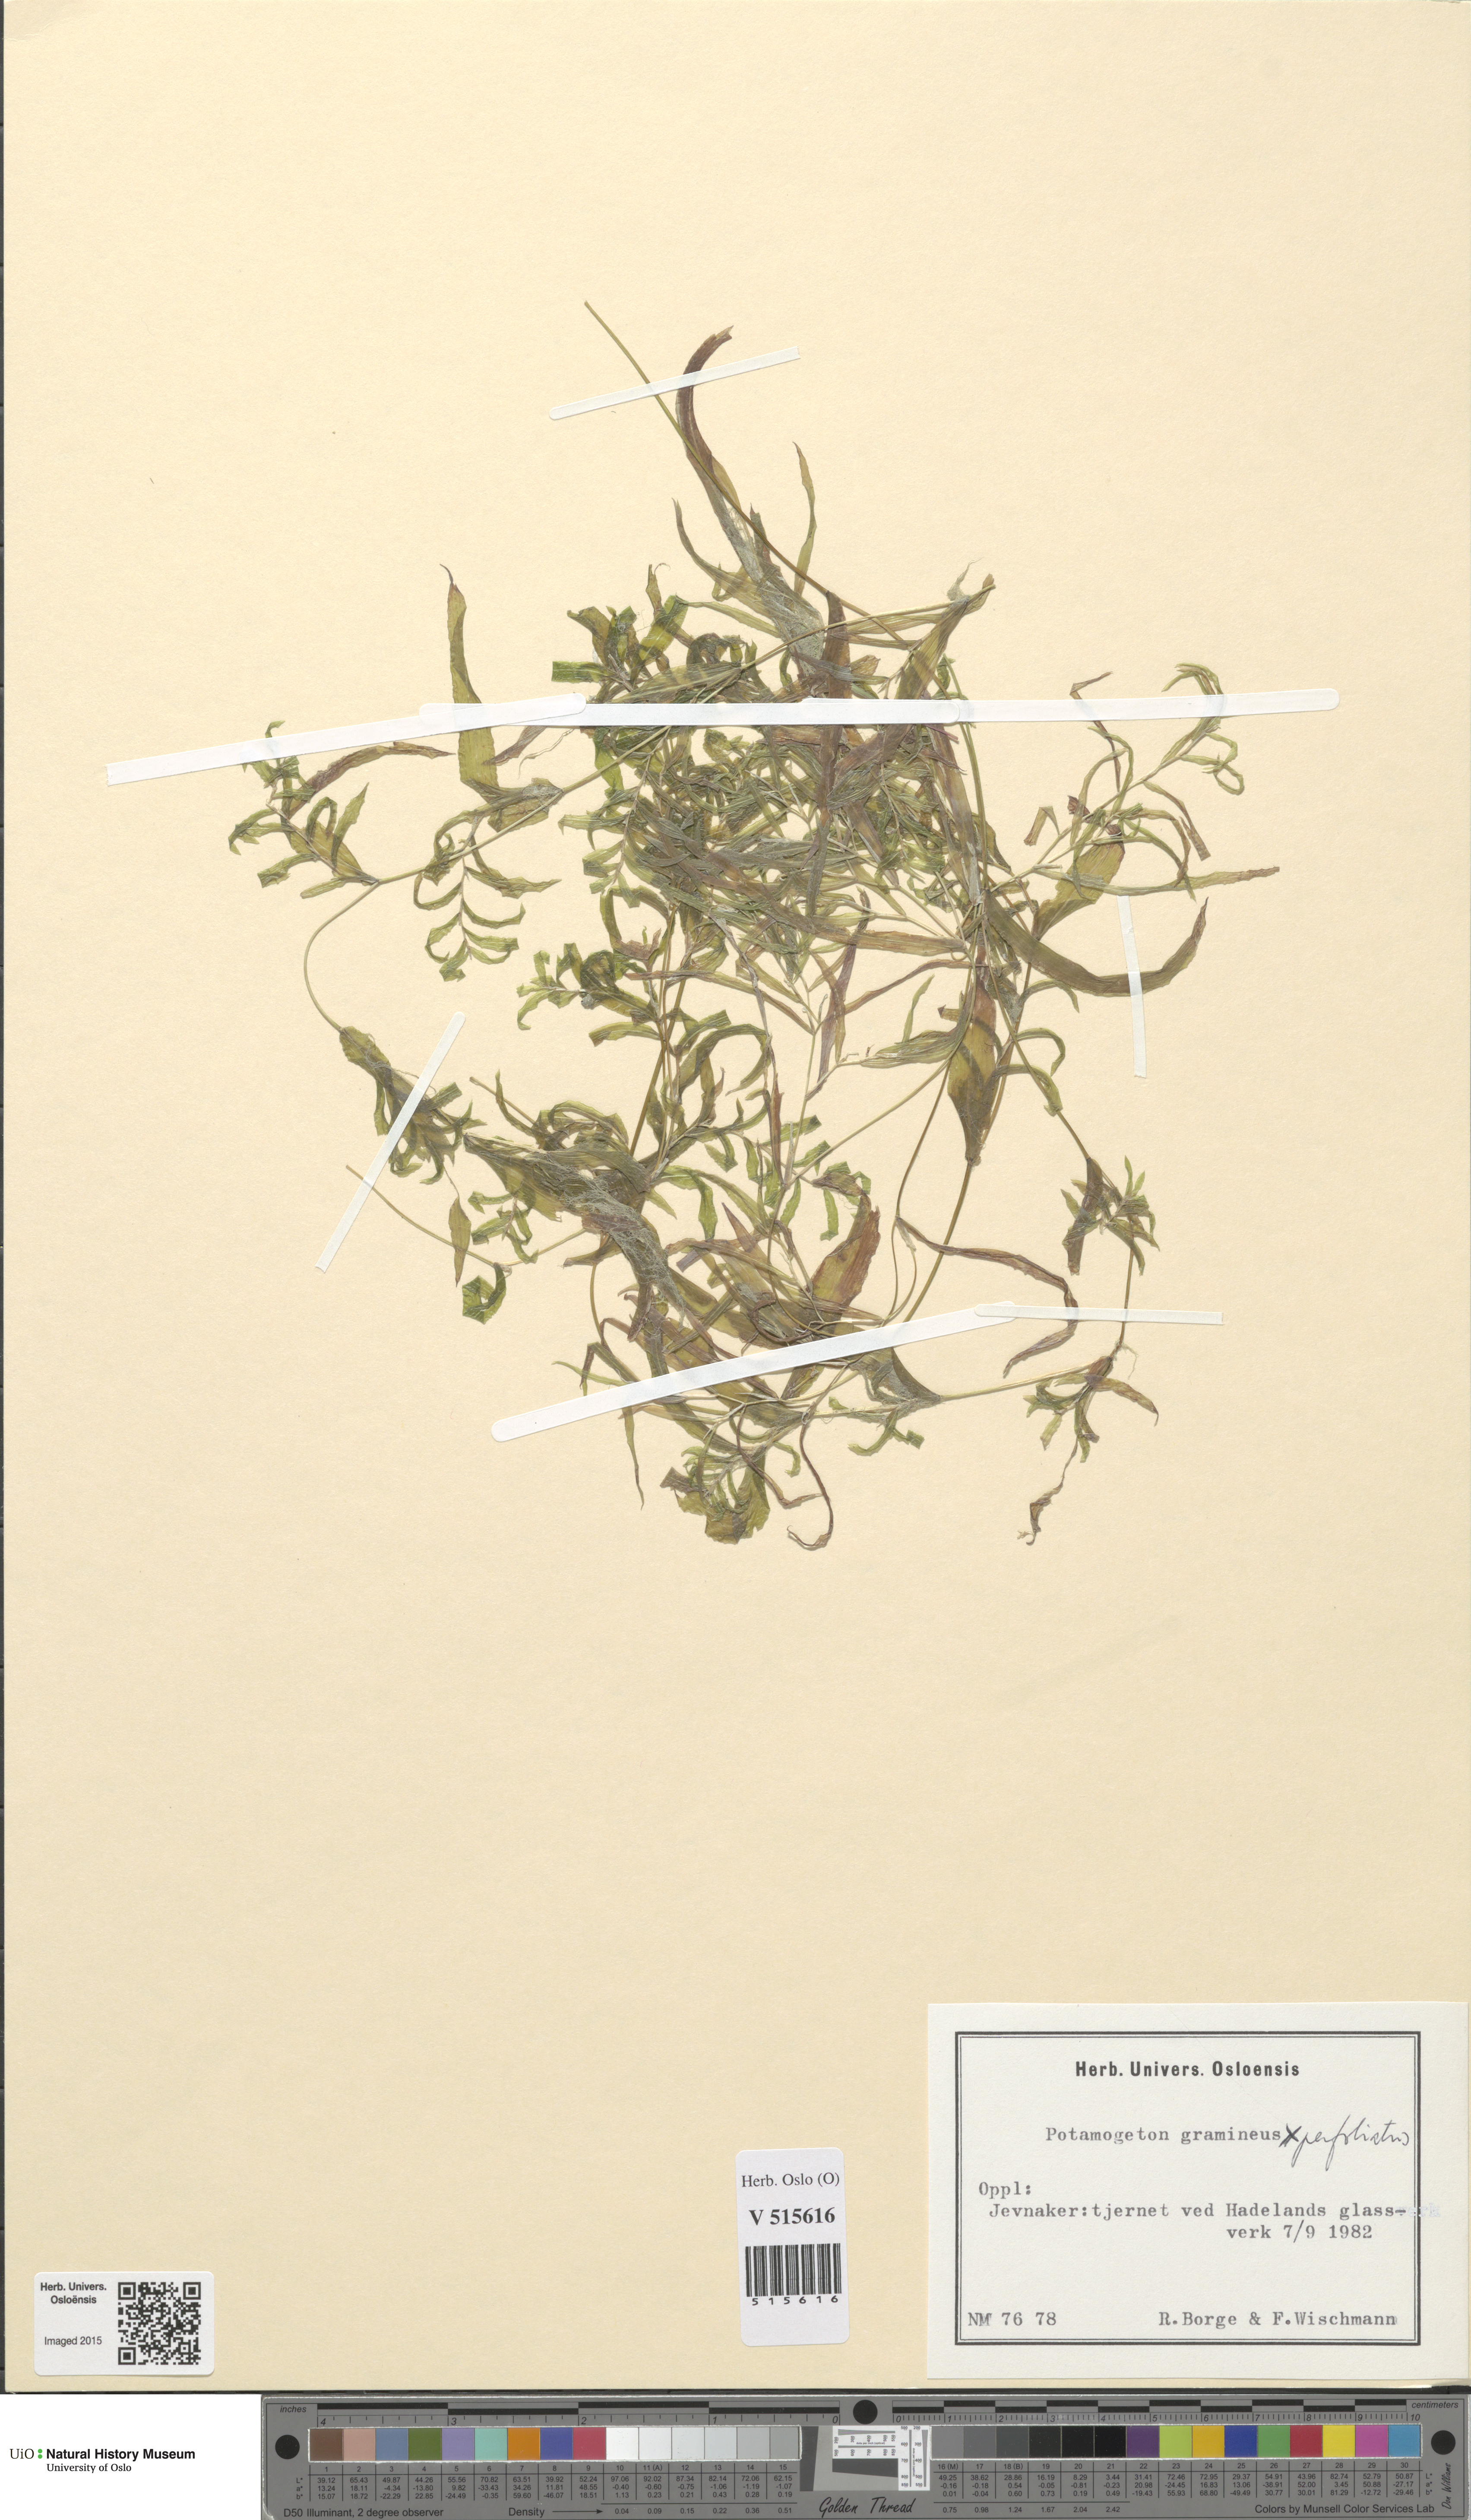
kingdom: Plantae
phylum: Tracheophyta
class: Liliopsida
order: Alismatales
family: Potamogetonaceae
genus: Potamogeton
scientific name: Potamogeton gramineus
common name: Various-leaved pondweed
